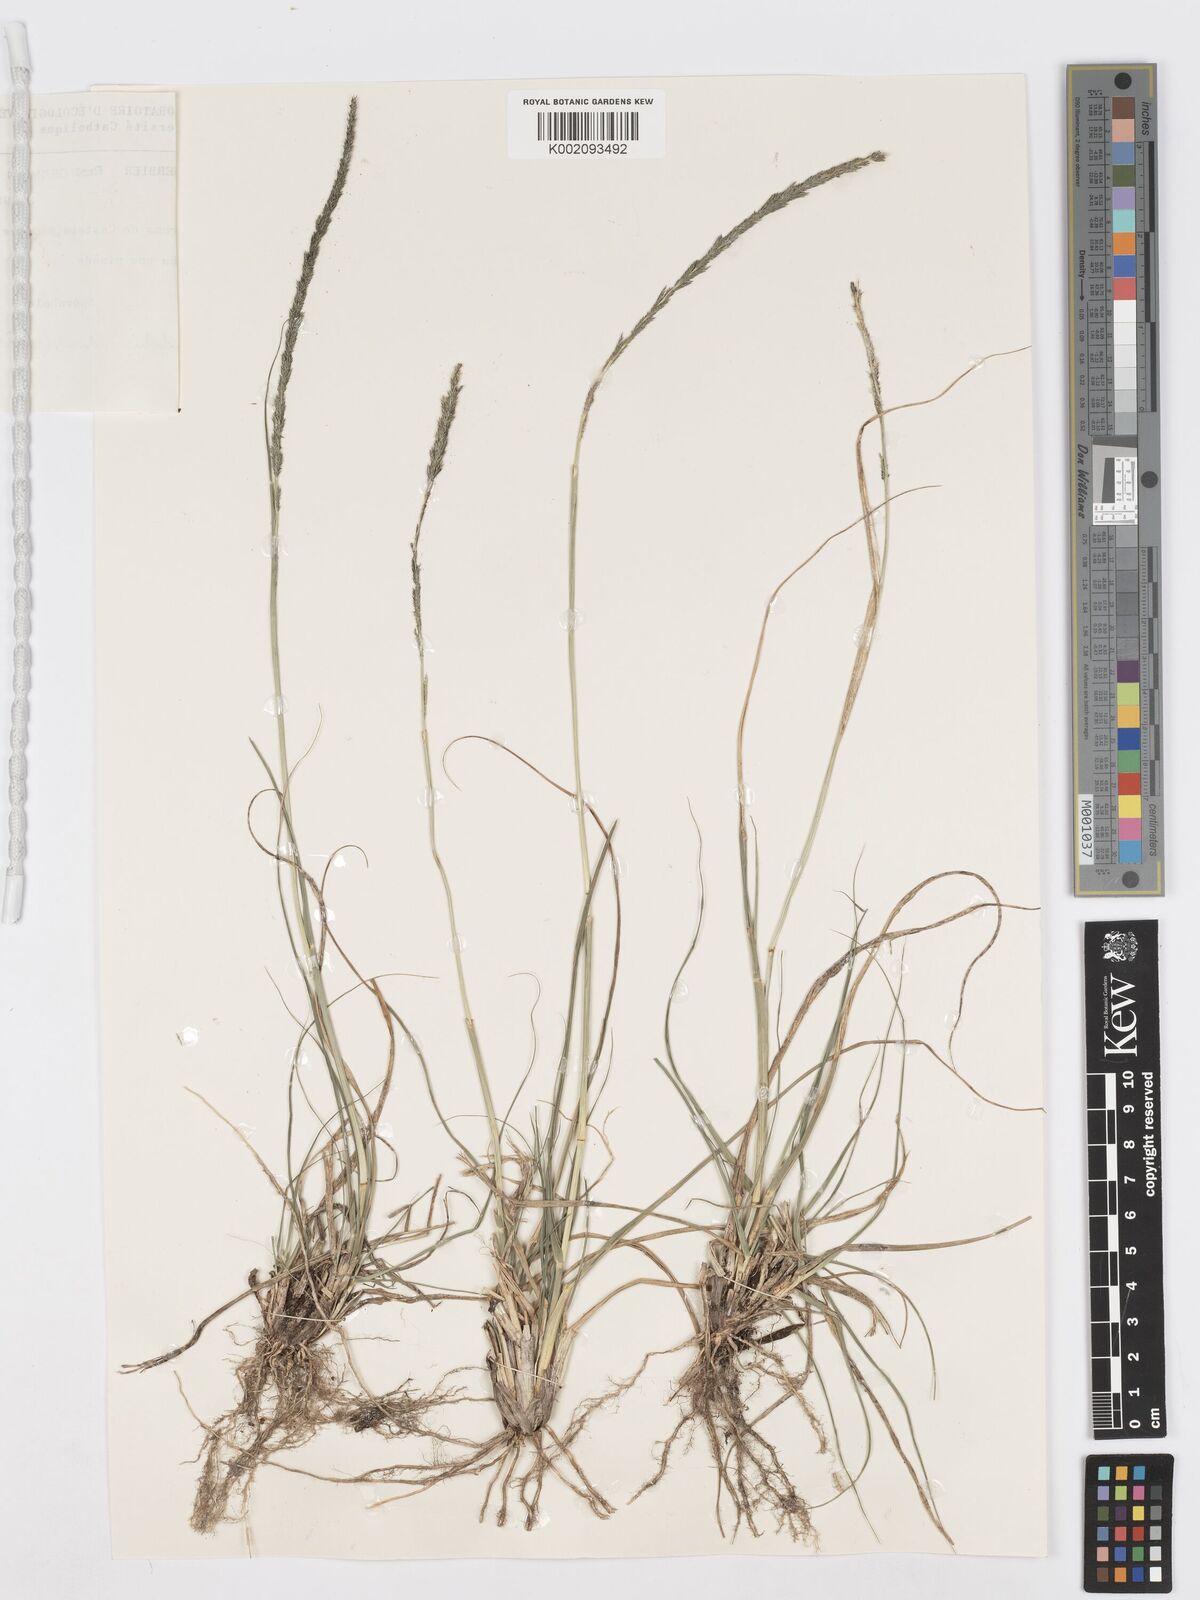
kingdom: Plantae
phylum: Tracheophyta
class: Liliopsida
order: Poales
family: Poaceae
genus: Sporobolus
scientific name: Sporobolus indicus
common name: Smut grass
